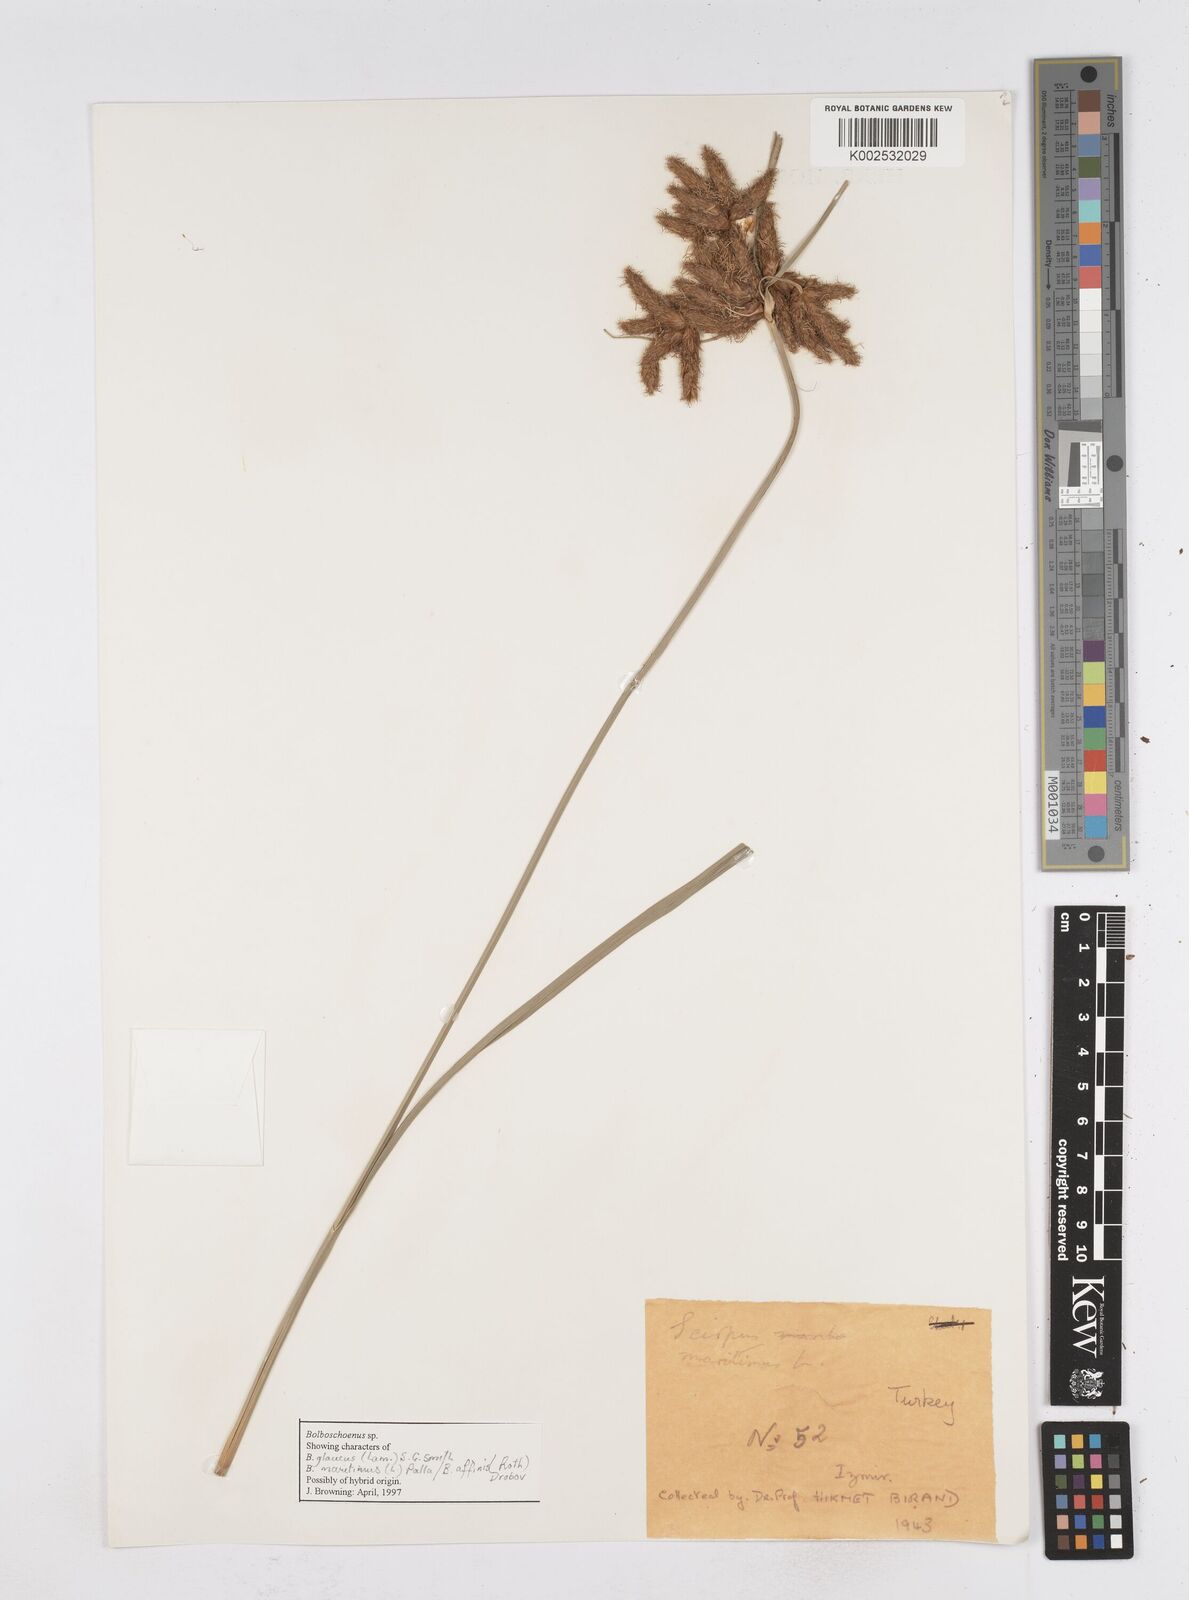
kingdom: Plantae
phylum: Tracheophyta
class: Liliopsida
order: Poales
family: Cyperaceae
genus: Bolboschoenus
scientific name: Bolboschoenus maritimus
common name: Sea club-rush
